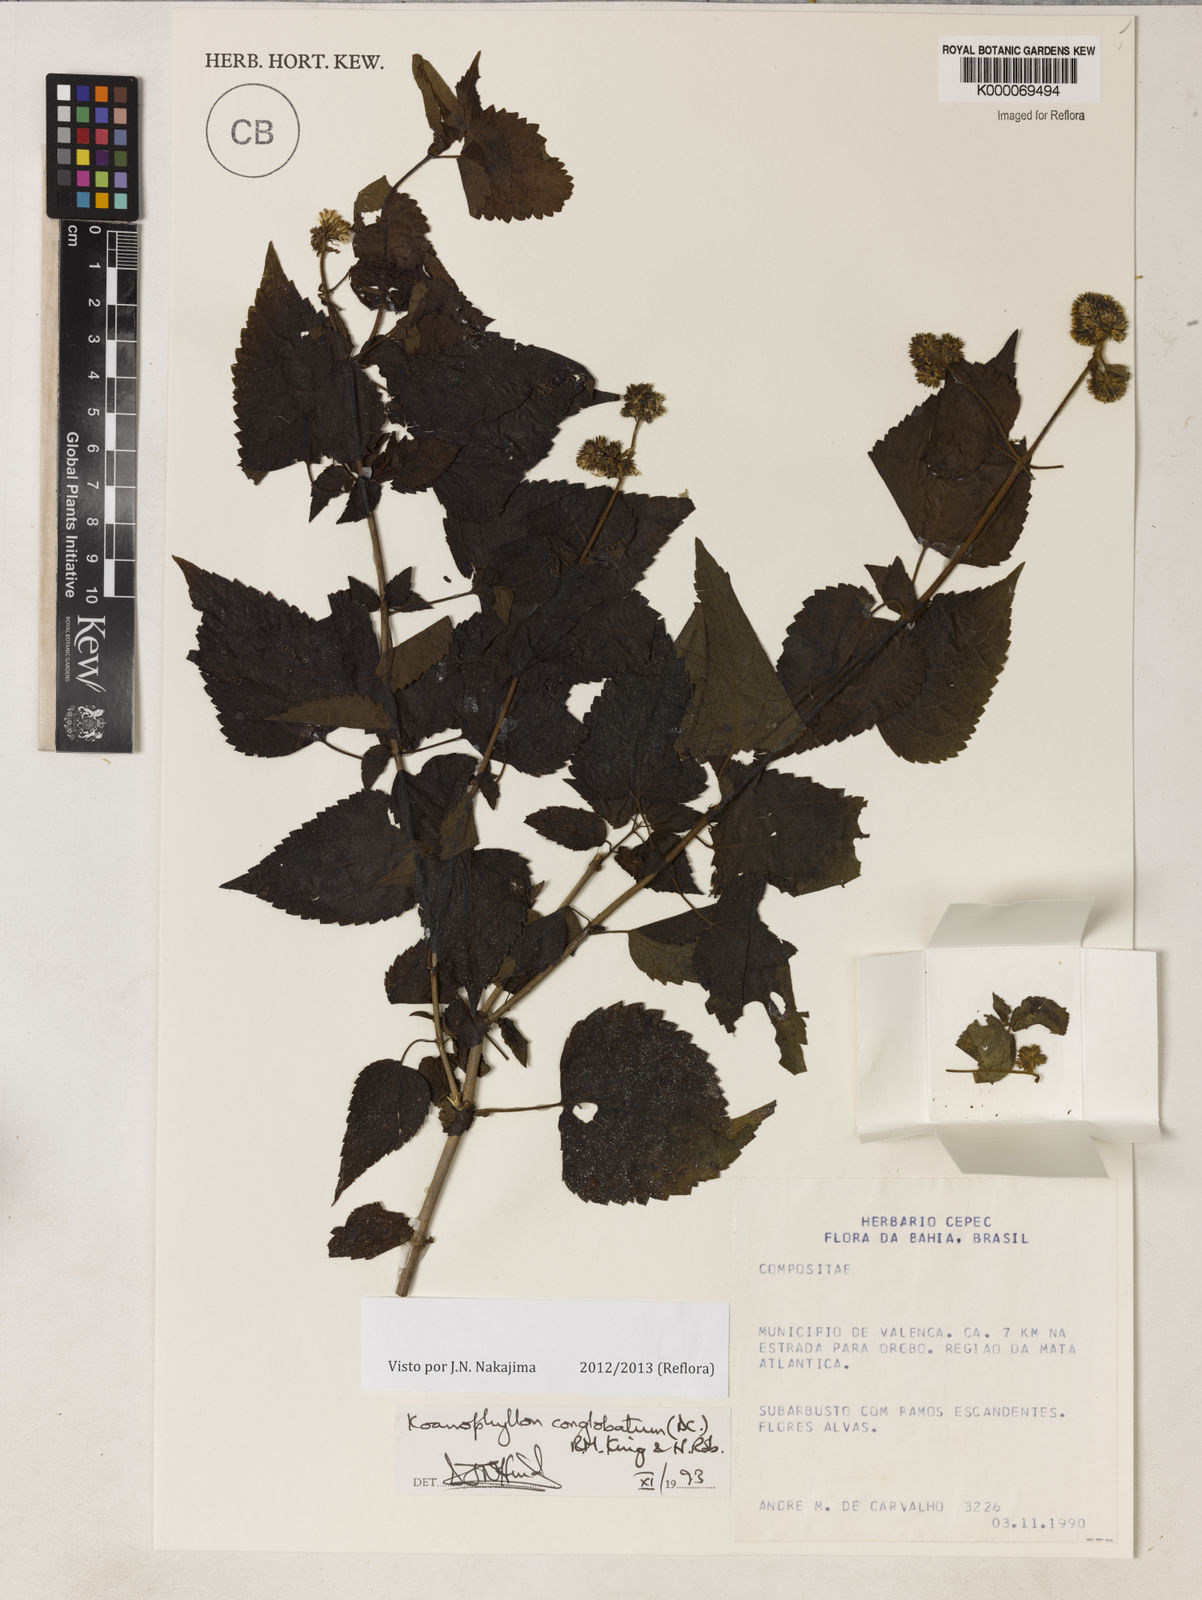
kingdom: Plantae
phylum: Tracheophyta
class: Magnoliopsida
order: Asterales
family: Asteraceae
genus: Koanophyllon
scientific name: Koanophyllon conglobatum
